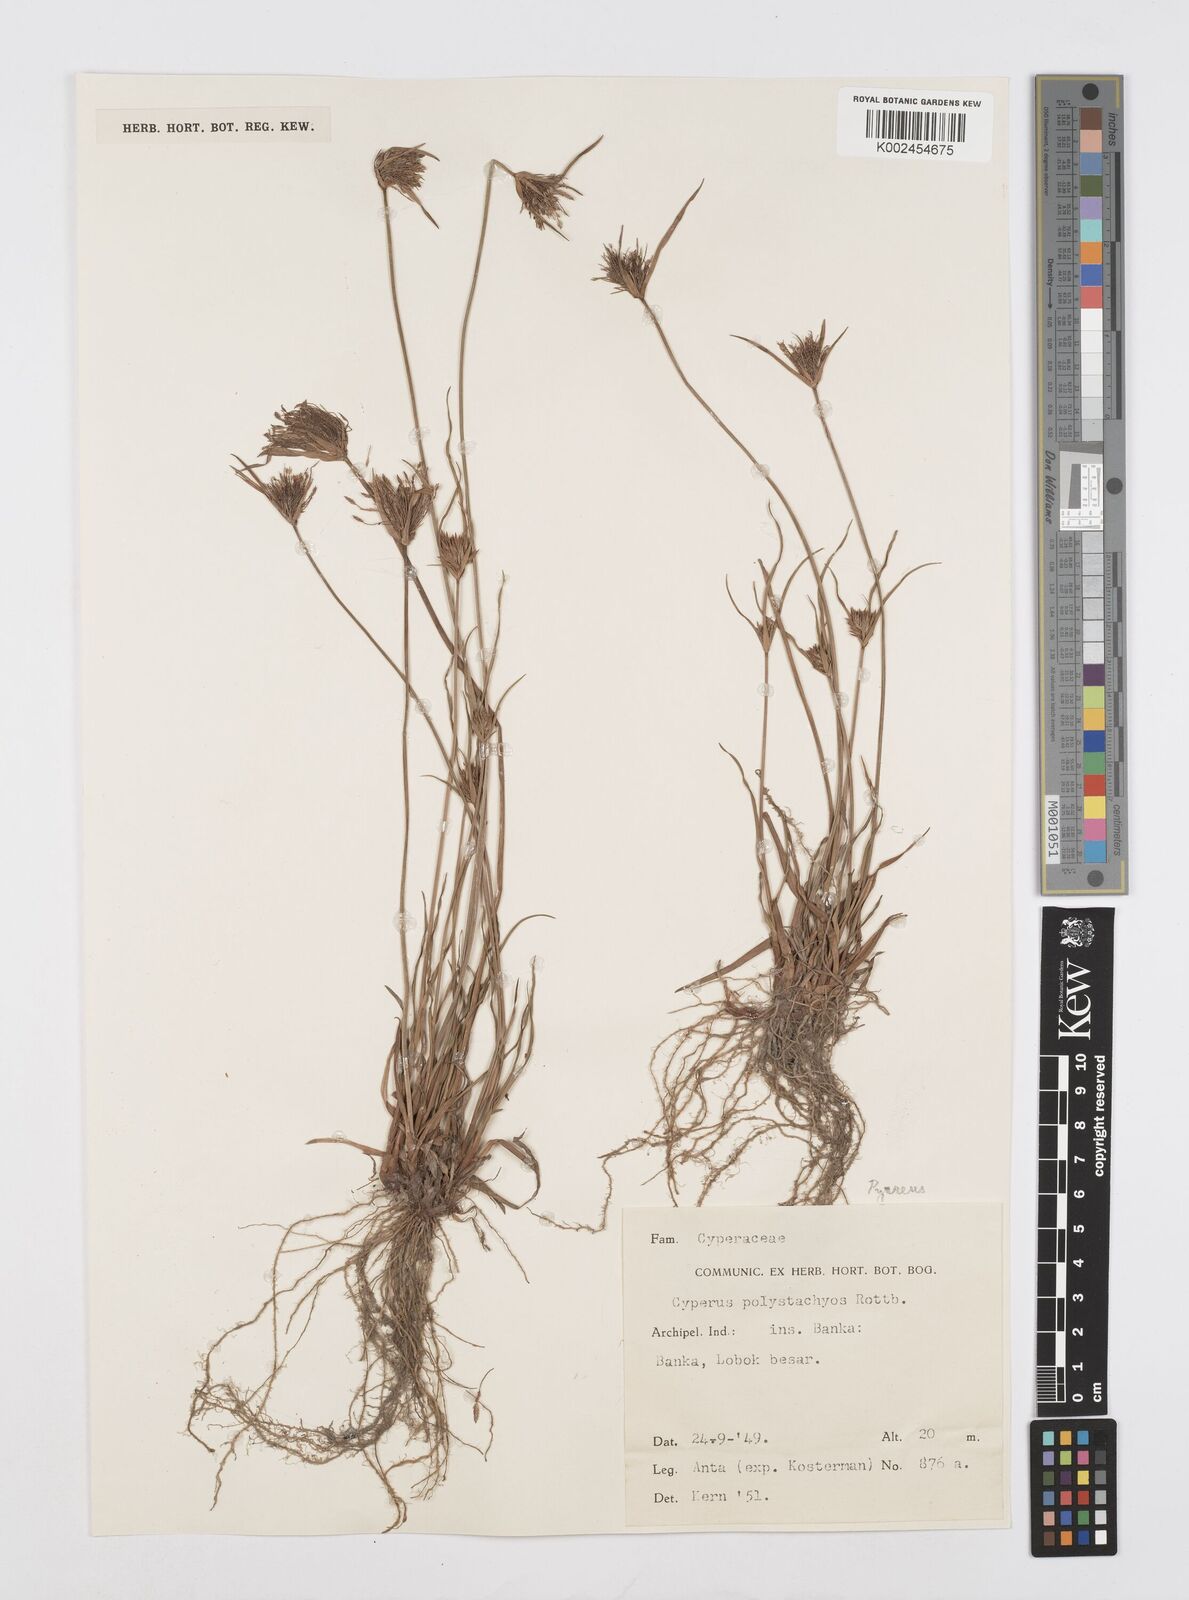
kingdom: Plantae
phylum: Tracheophyta
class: Liliopsida
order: Poales
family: Cyperaceae
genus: Cyperus
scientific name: Cyperus polystachyos
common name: Bunchy flat sedge
